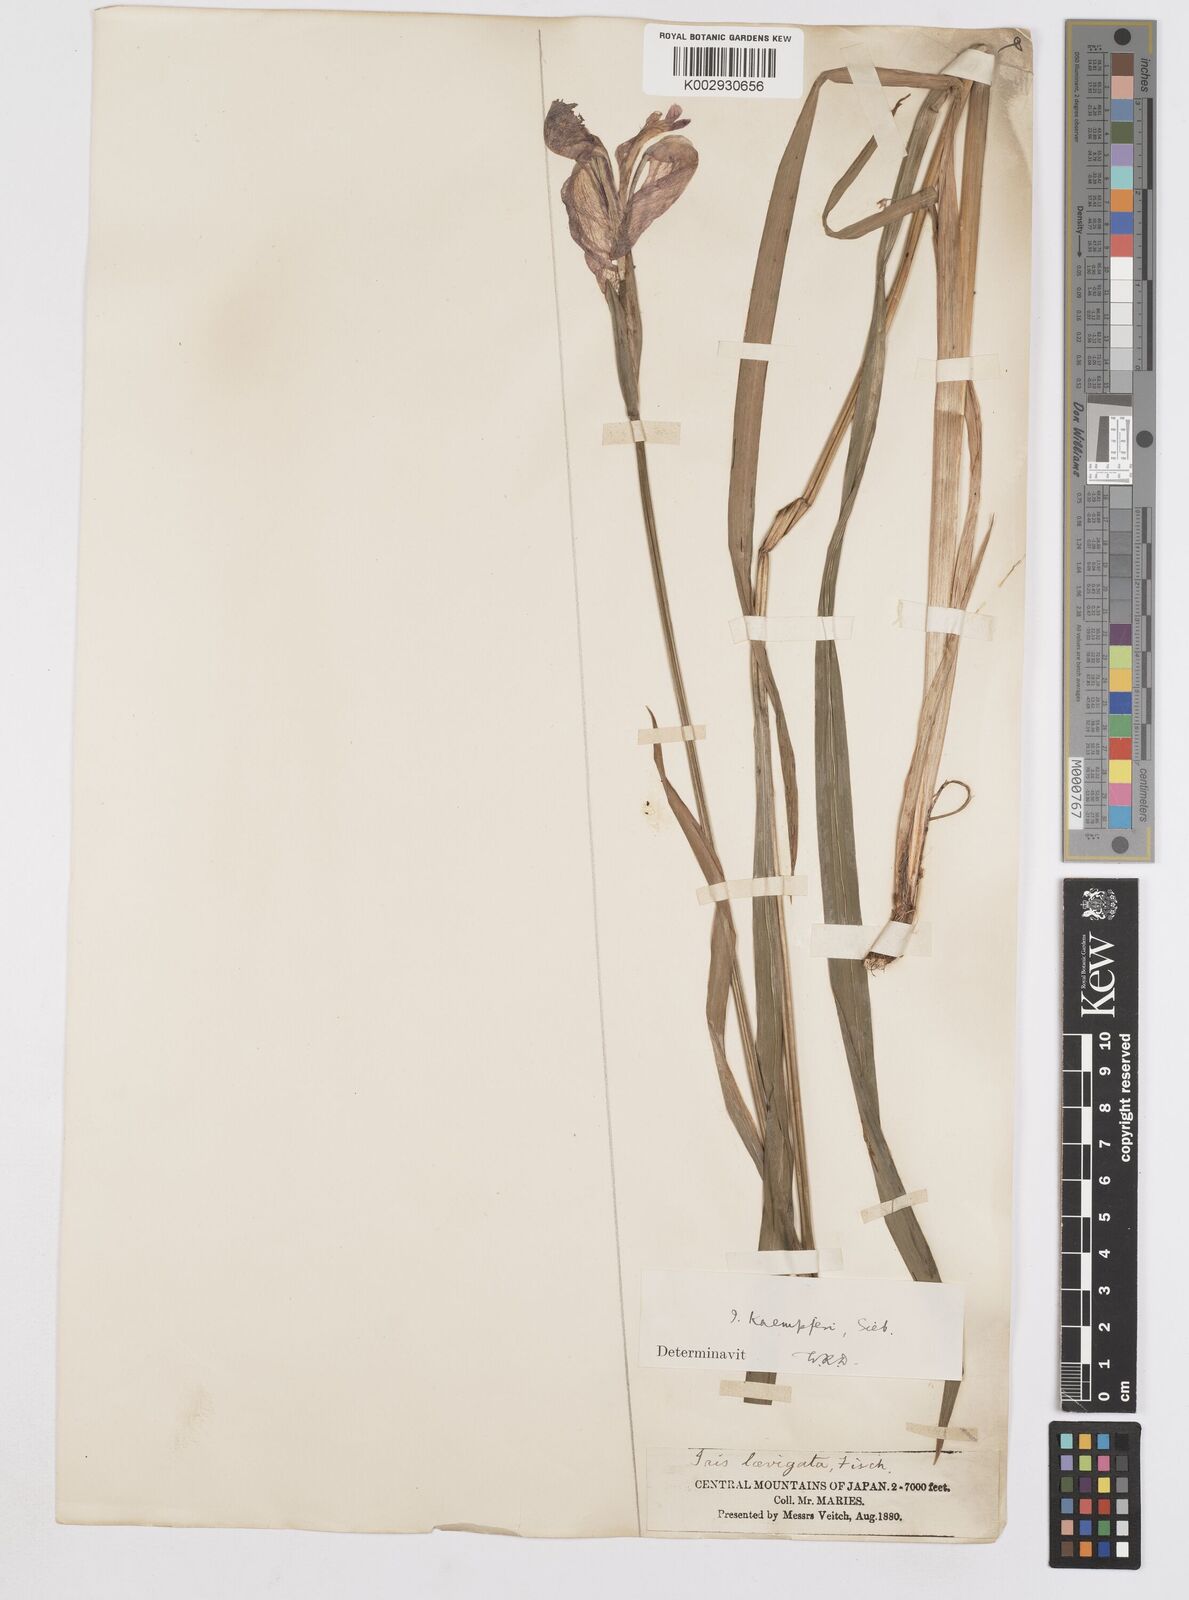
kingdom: Plantae
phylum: Tracheophyta
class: Liliopsida
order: Asparagales
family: Iridaceae
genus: Iris
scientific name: Iris ensata
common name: Beaked iris
